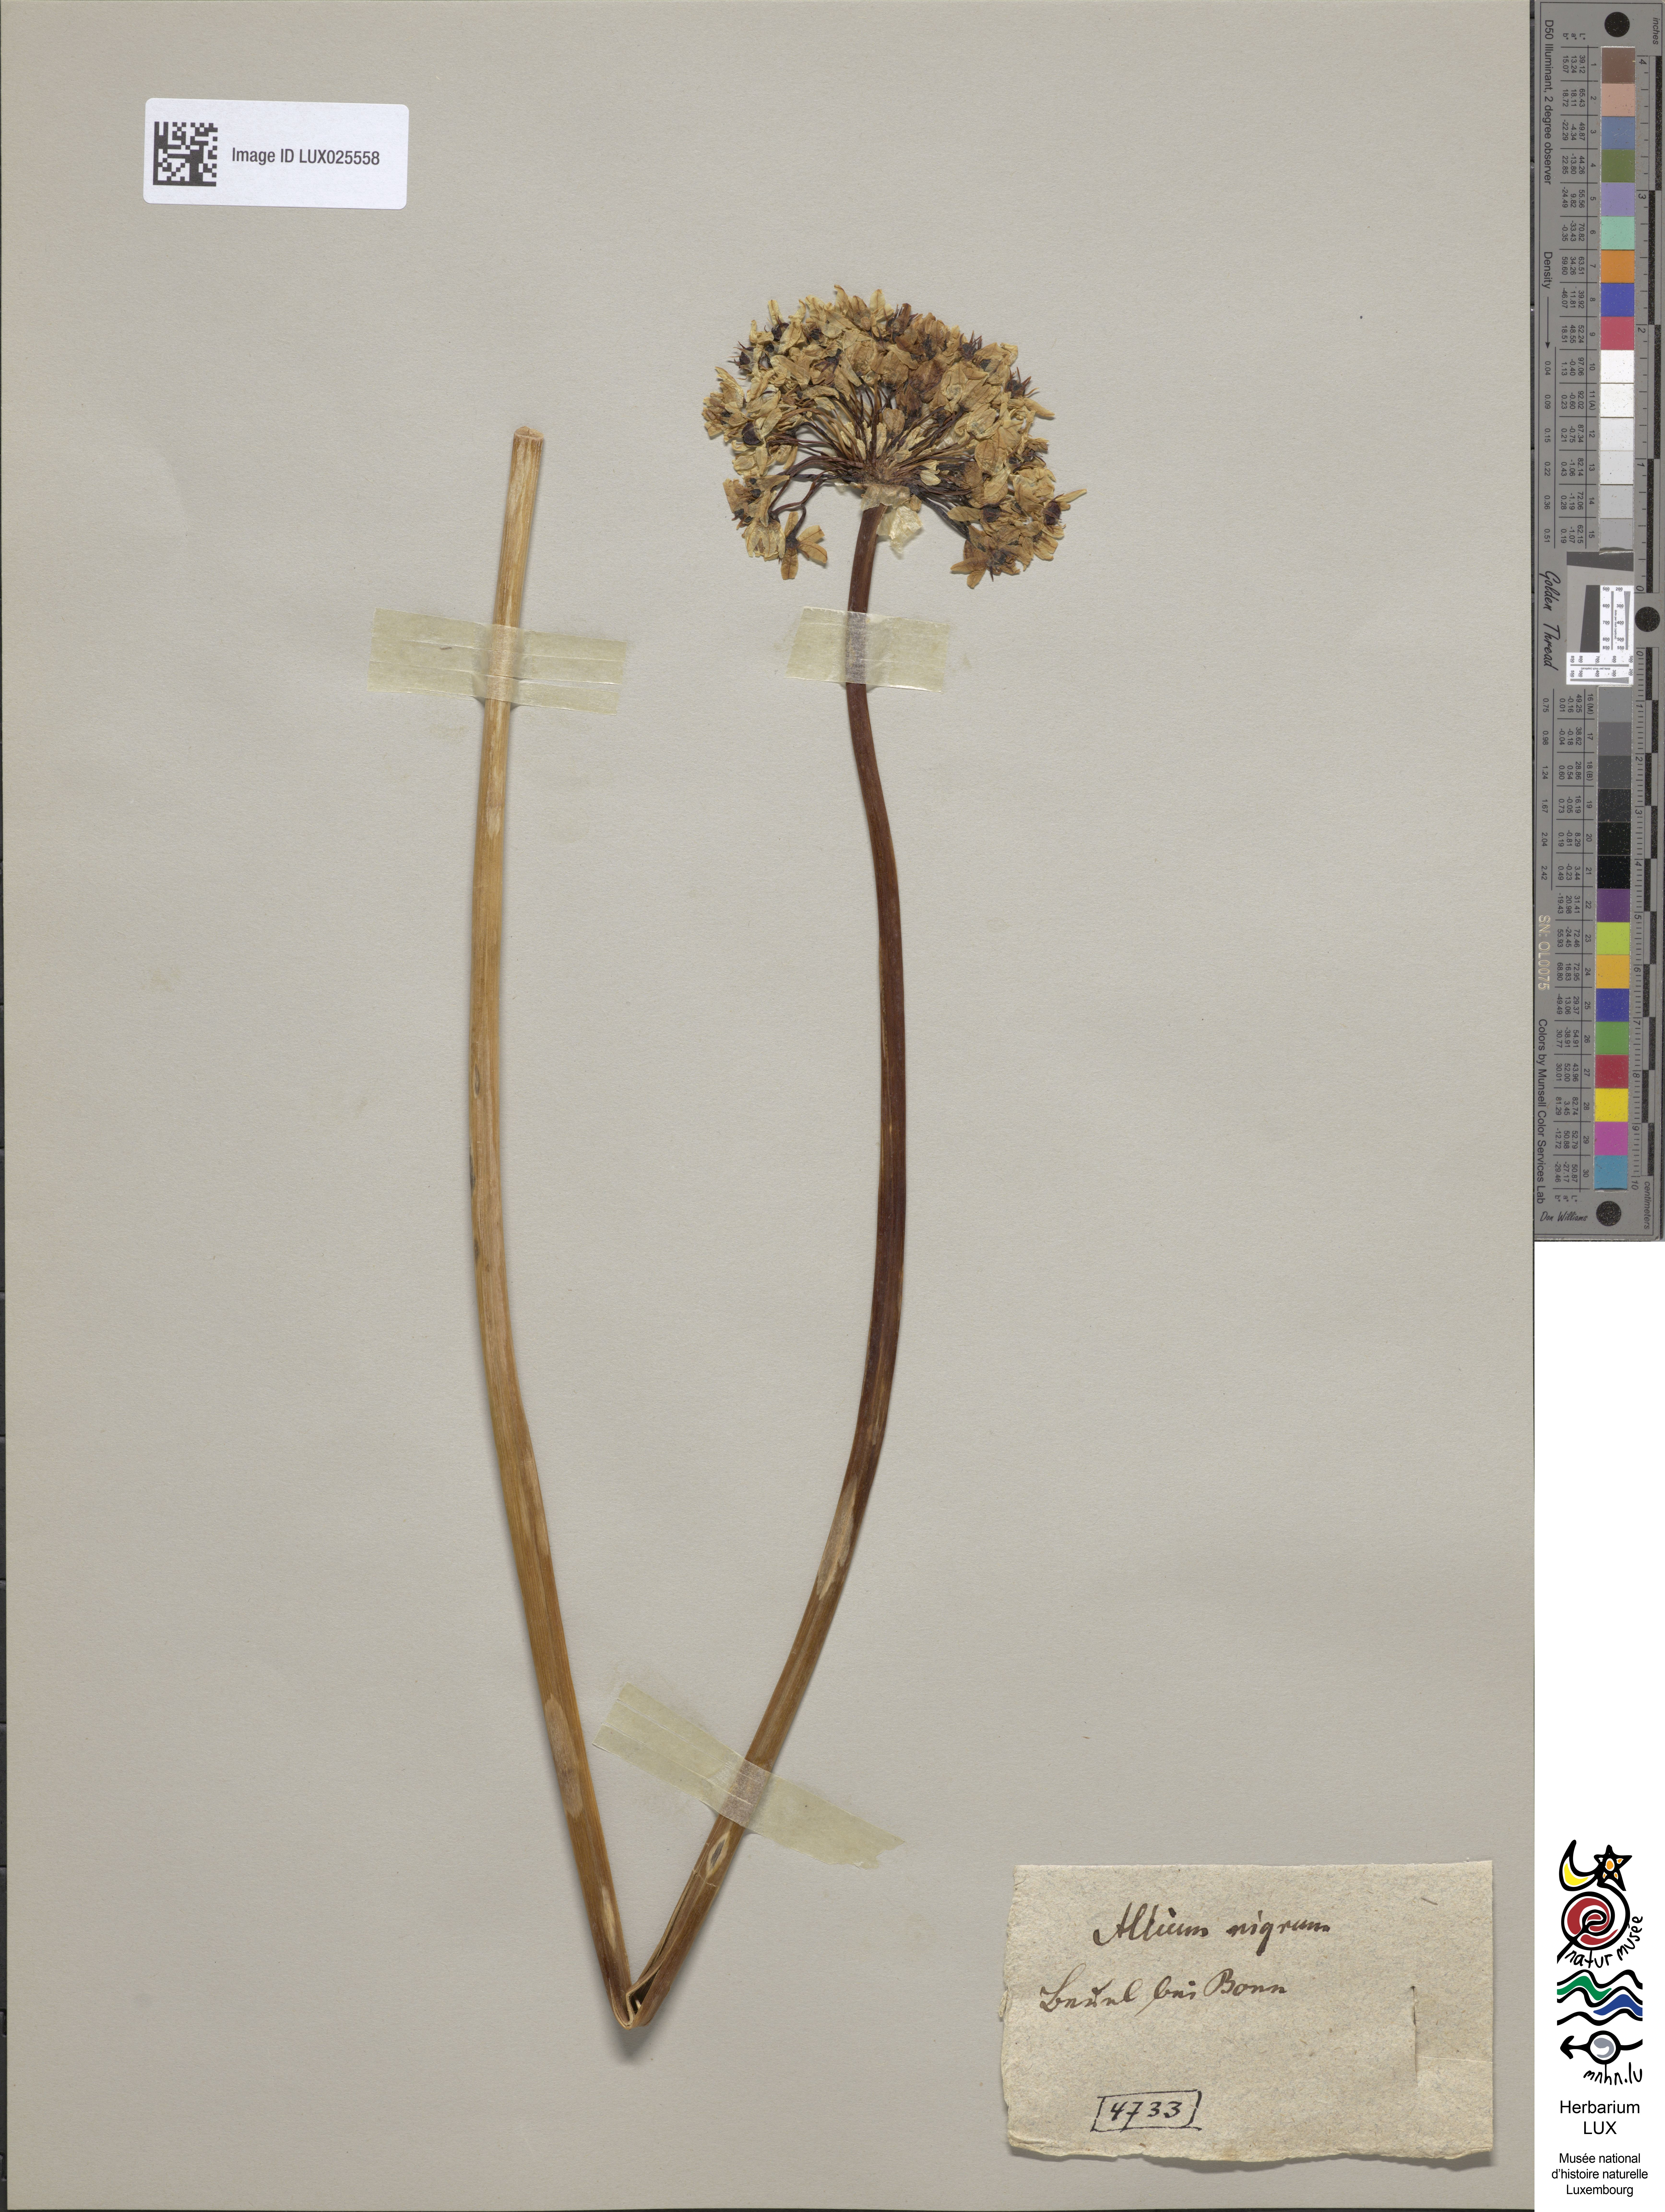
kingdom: Plantae
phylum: Tracheophyta
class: Liliopsida
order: Asparagales
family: Amaryllidaceae
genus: Allium
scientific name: Allium nigrum
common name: Black garlic
